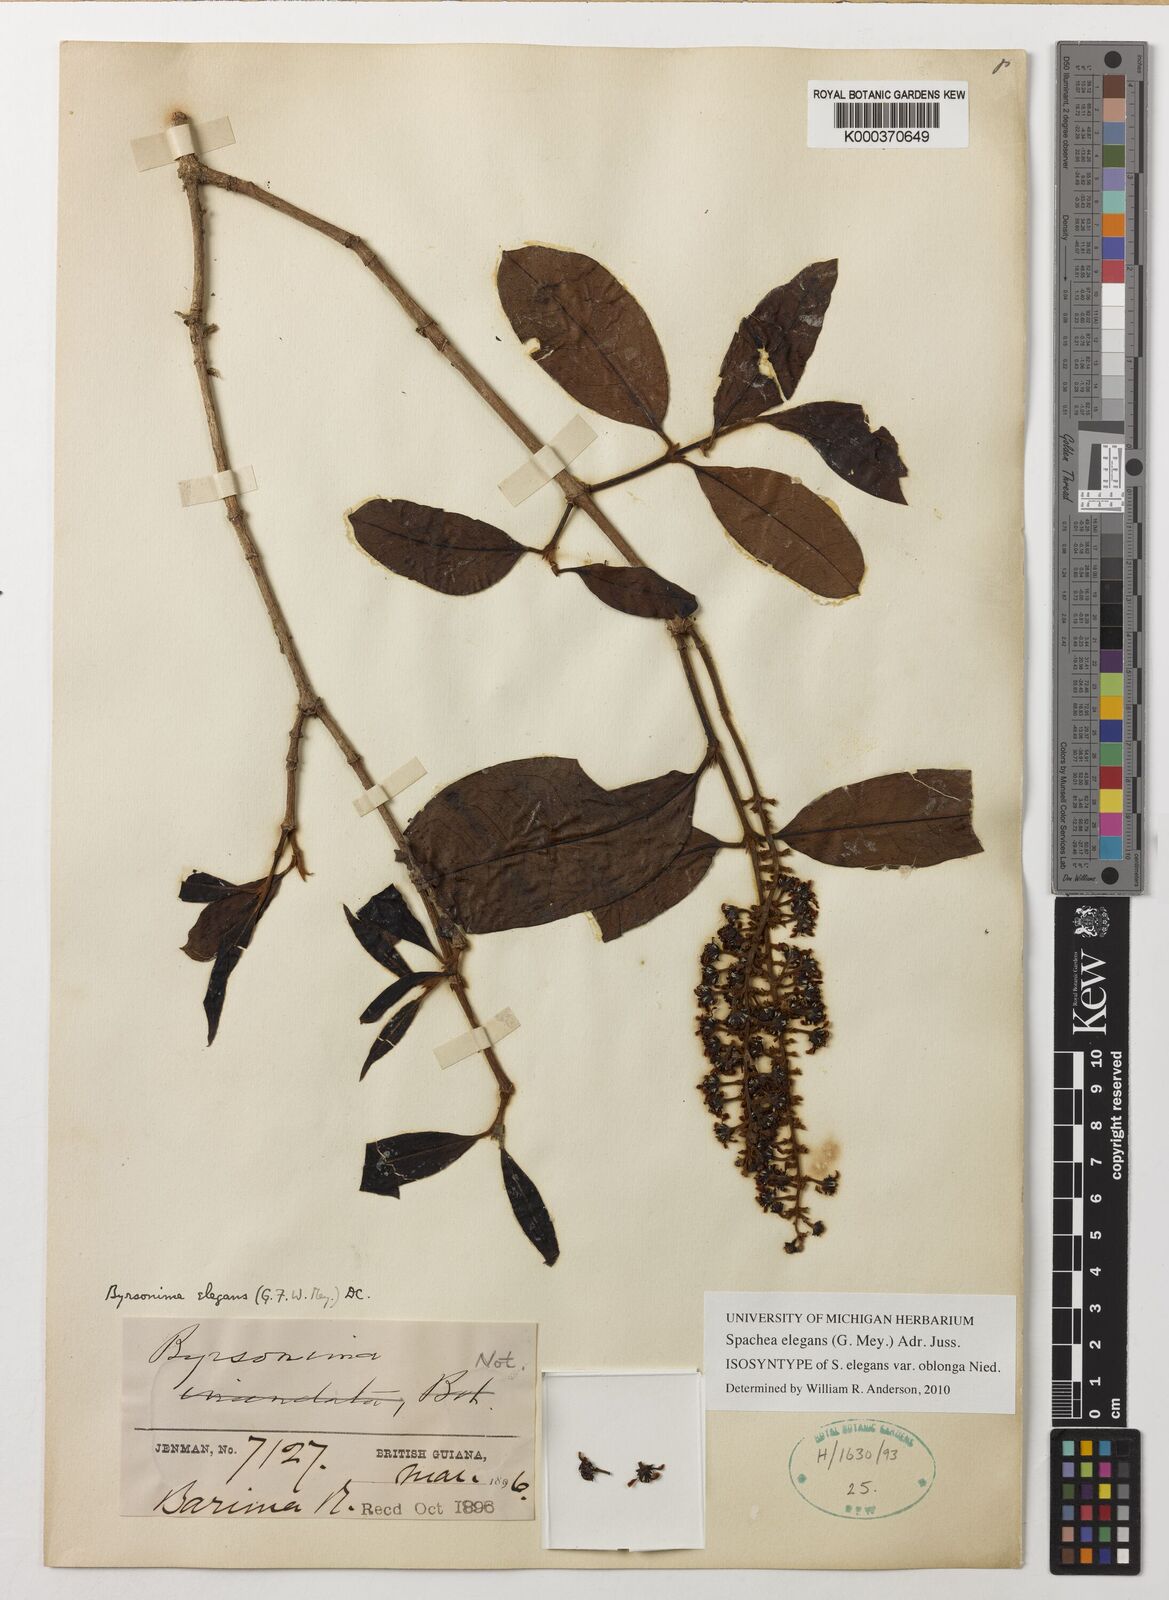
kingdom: Plantae
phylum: Tracheophyta
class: Magnoliopsida
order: Malpighiales
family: Malpighiaceae
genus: Spachea
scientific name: Spachea elegans
